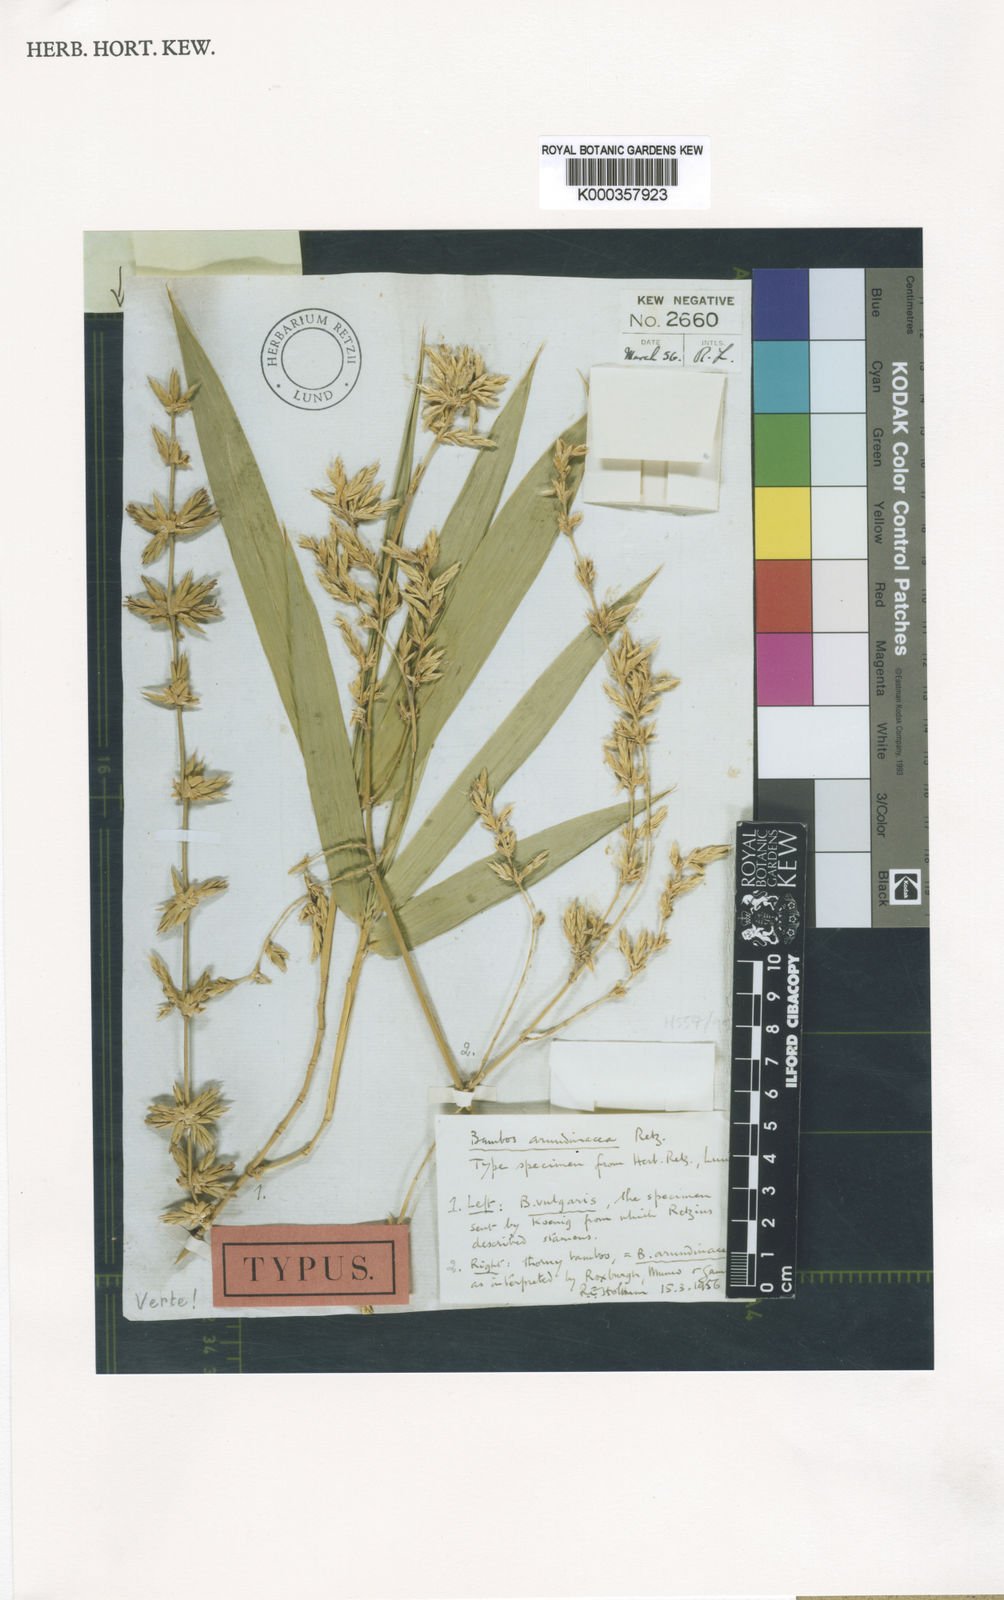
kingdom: Plantae
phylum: Tracheophyta
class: Liliopsida
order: Poales
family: Poaceae
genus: Bambusa
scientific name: Bambusa bambos
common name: Indian thorny bamboo
